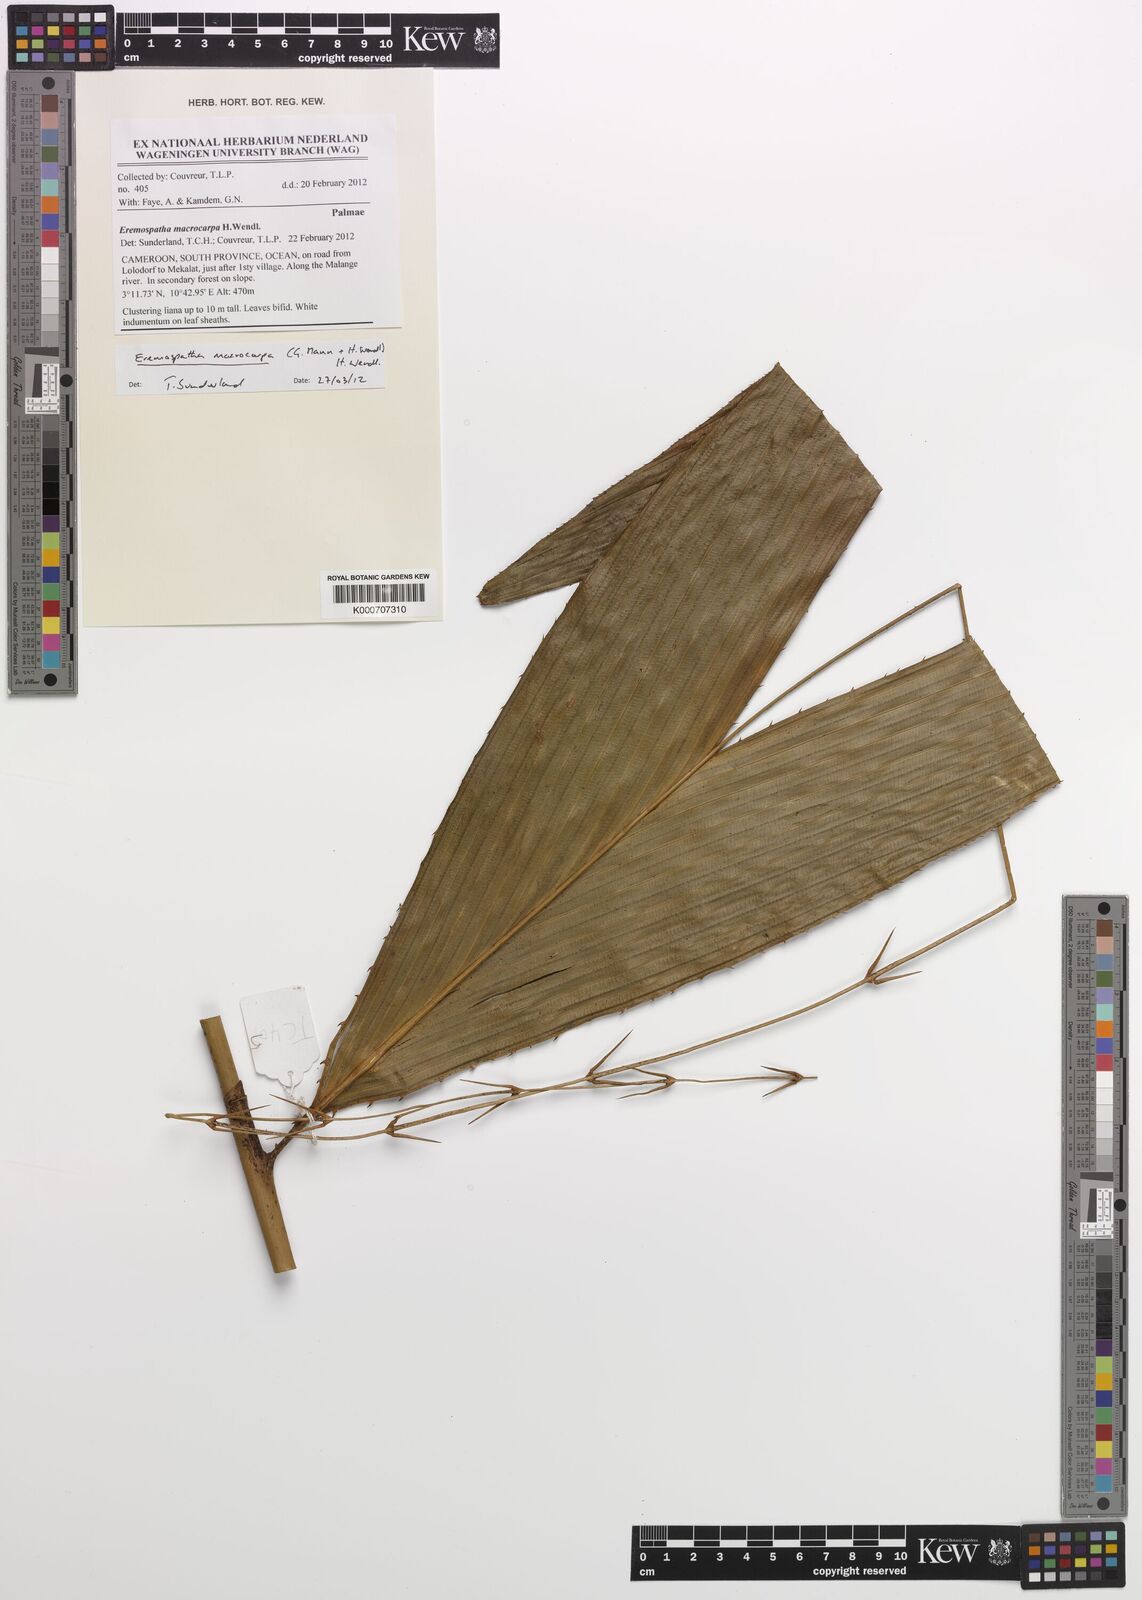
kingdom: Plantae
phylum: Tracheophyta
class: Liliopsida
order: Arecales
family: Arecaceae
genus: Eremospatha
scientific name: Eremospatha macrocarpa
